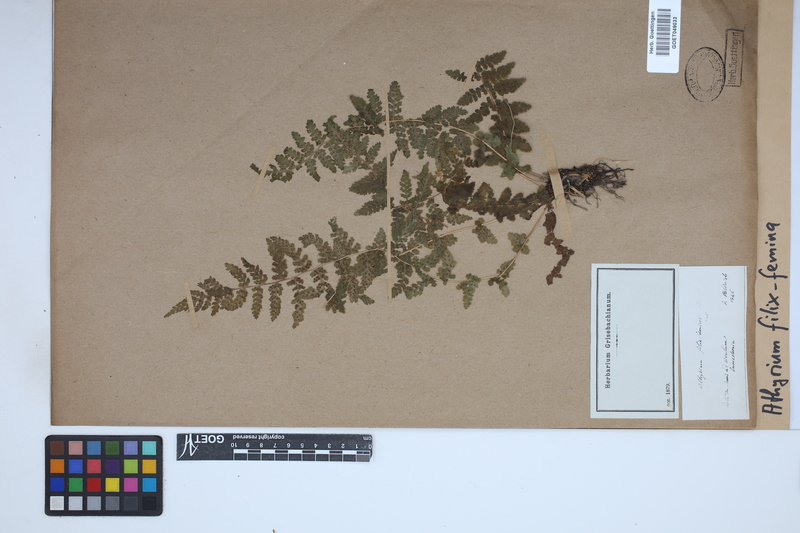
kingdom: Plantae
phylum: Tracheophyta
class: Polypodiopsida
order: Polypodiales
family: Athyriaceae
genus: Athyrium
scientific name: Athyrium filix-femina
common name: Lady fern
